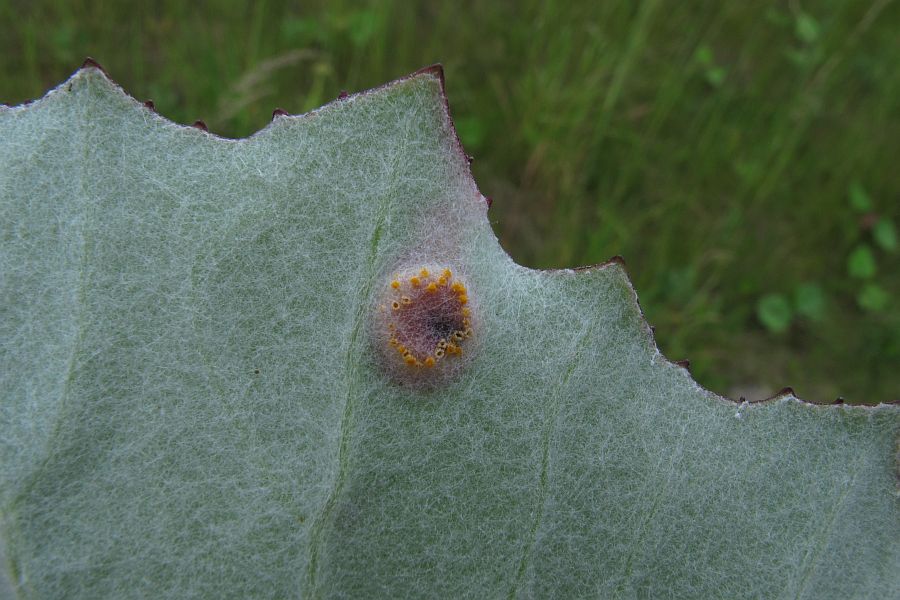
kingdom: Fungi
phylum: Basidiomycota
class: Pucciniomycetes
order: Pucciniales
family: Pucciniaceae
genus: Puccinia
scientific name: Puccinia poarum
